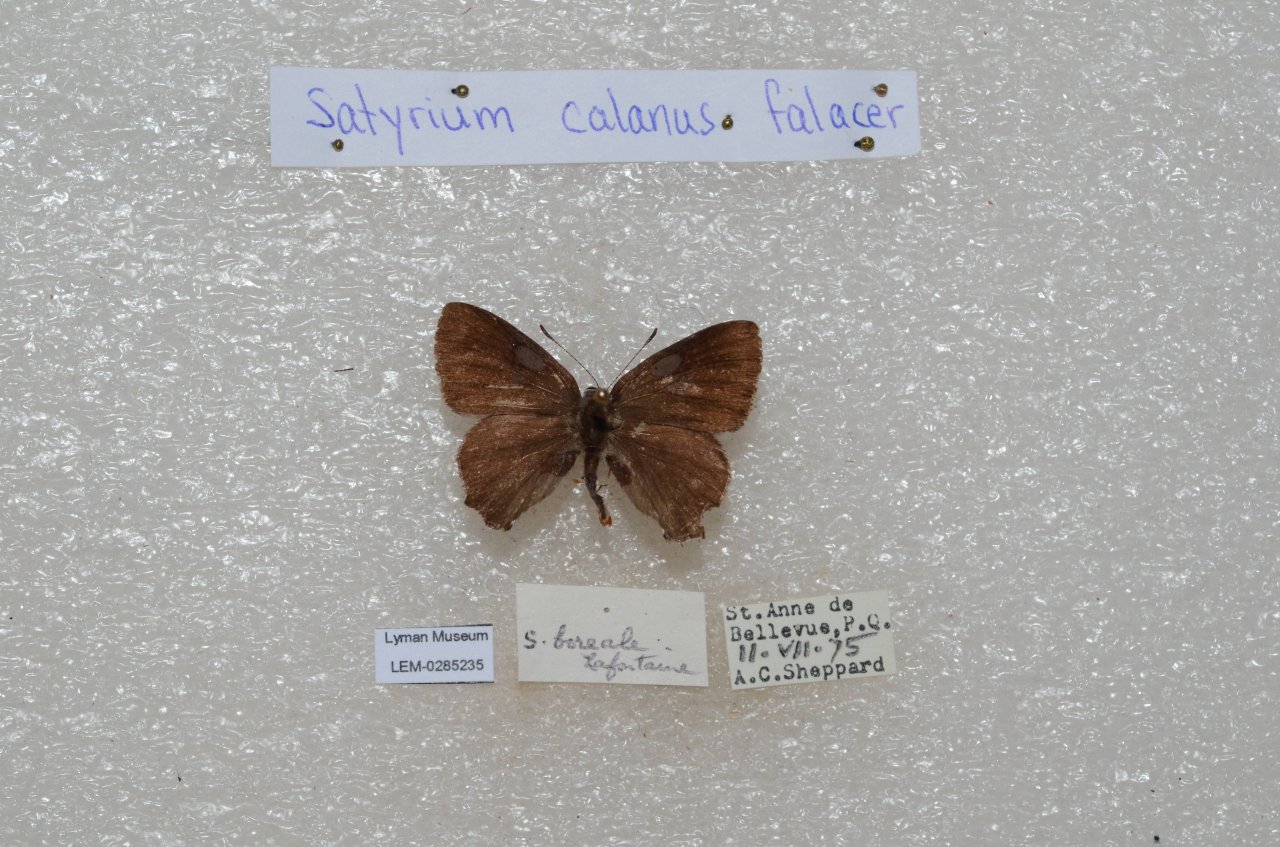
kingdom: Animalia
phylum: Arthropoda
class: Insecta
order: Lepidoptera
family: Lycaenidae
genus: Satyrium
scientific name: Satyrium calanus
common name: Banded Hairstreak
